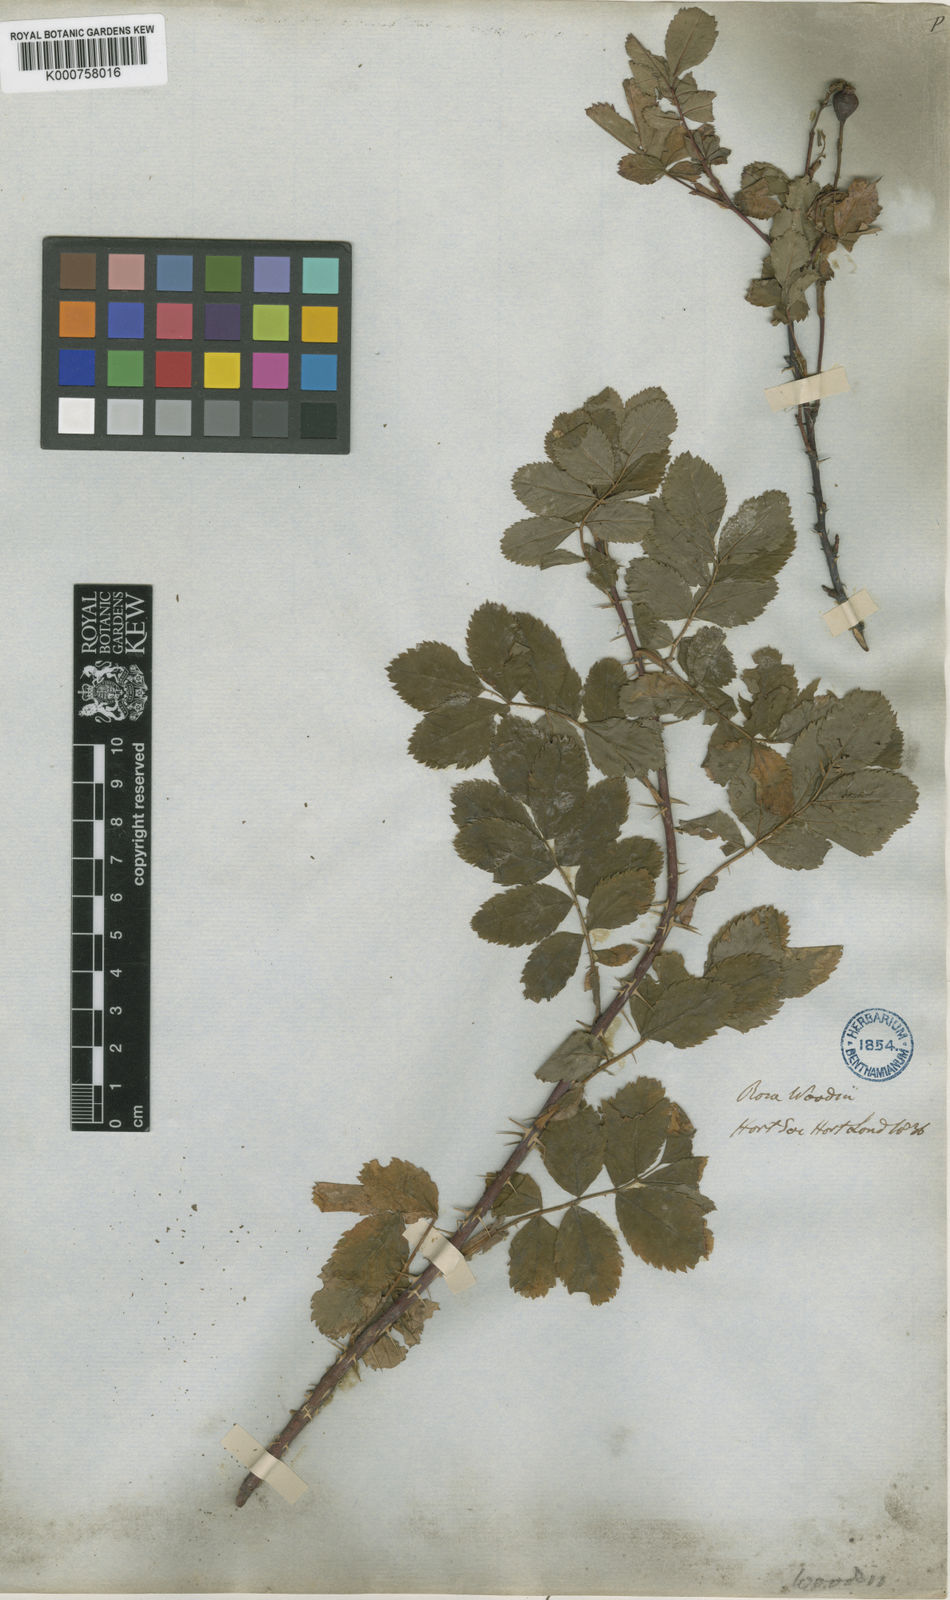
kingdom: Plantae
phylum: Tracheophyta
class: Magnoliopsida
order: Rosales
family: Rosaceae
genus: Rosa
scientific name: Rosa woodsii
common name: Woods's rose
